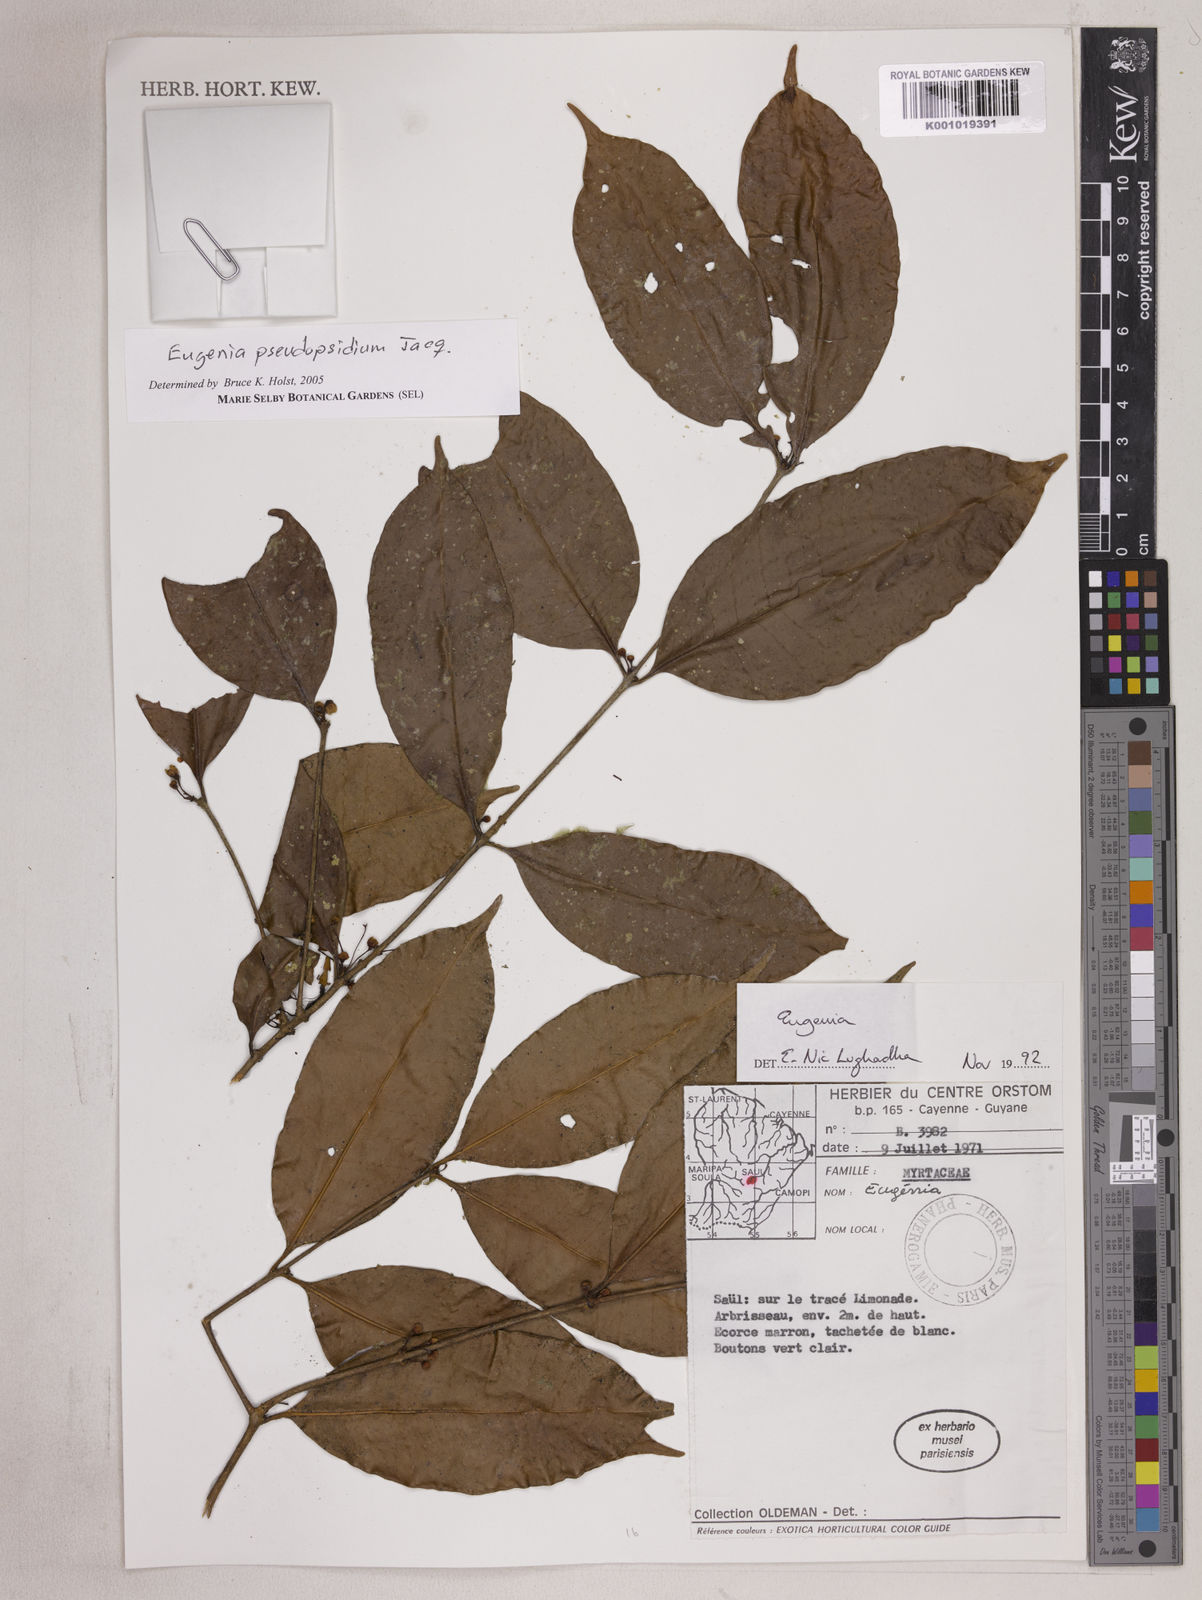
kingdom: Plantae
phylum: Tracheophyta
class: Magnoliopsida
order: Myrtales
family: Myrtaceae
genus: Eugenia
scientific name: Eugenia pseudopsidium
